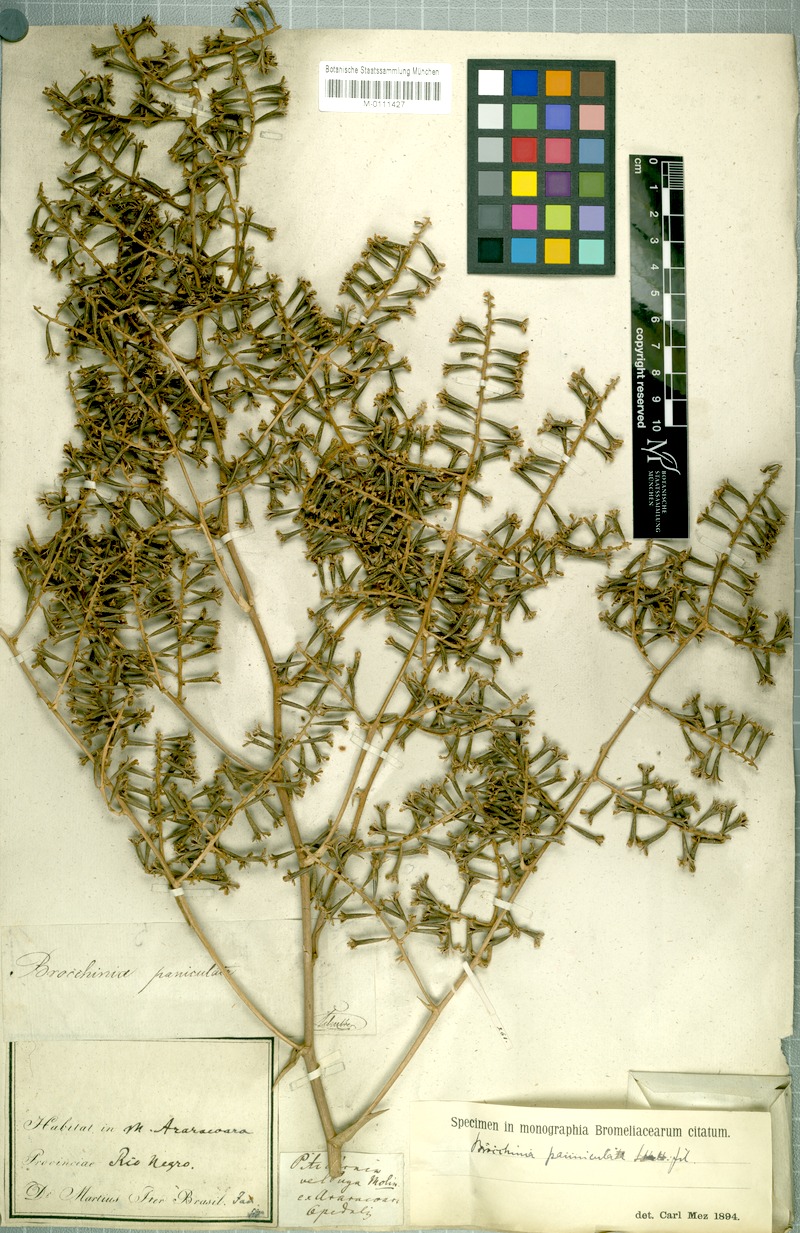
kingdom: Plantae
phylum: Tracheophyta
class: Liliopsida
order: Poales
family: Bromeliaceae
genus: Brocchinia
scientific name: Brocchinia paniculata
